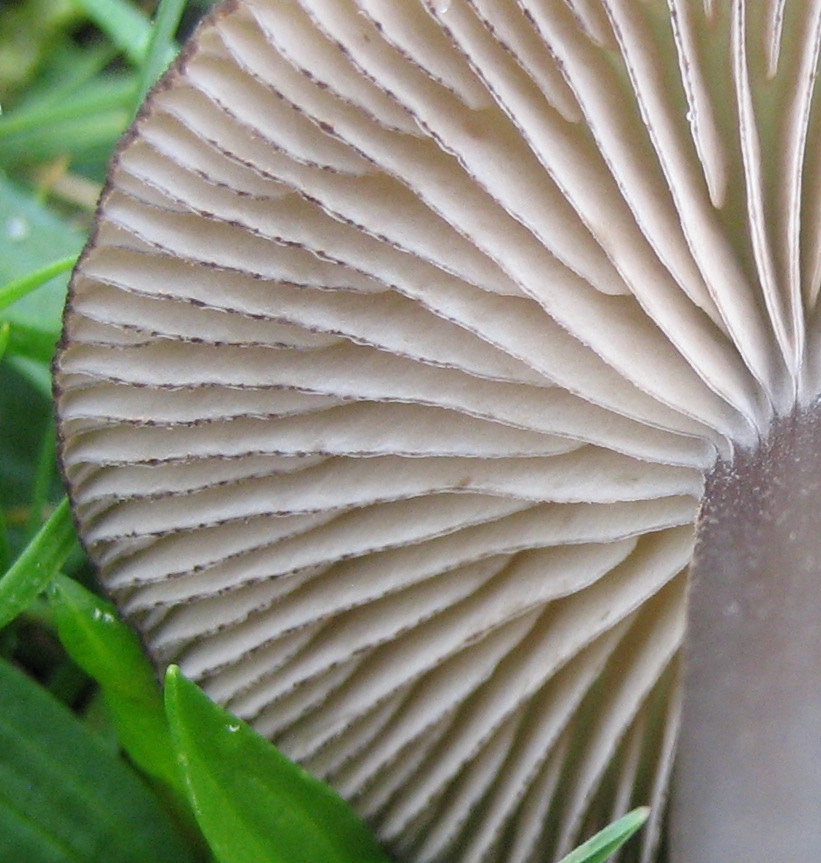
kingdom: Fungi
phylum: Basidiomycota
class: Agaricomycetes
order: Agaricales
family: Entolomataceae
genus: Entoloma
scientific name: Entoloma
